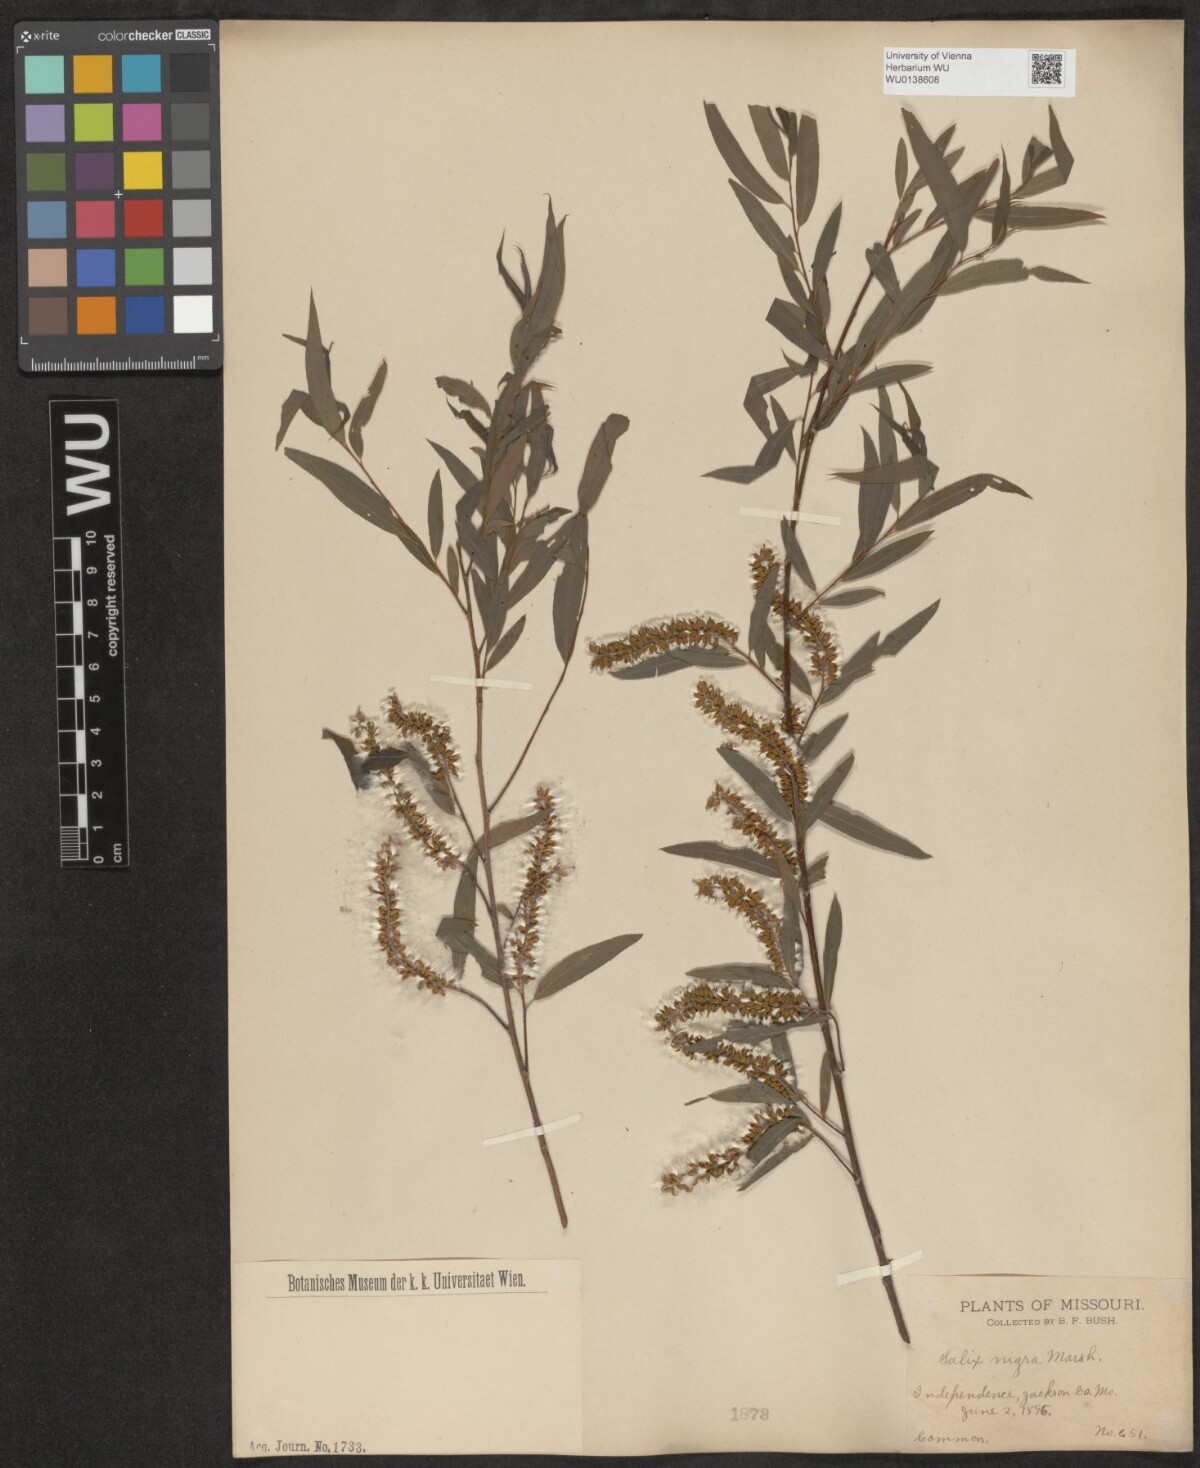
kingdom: Plantae
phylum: Tracheophyta
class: Magnoliopsida
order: Malpighiales
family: Salicaceae
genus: Salix
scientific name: Salix nigra
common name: Black willow
